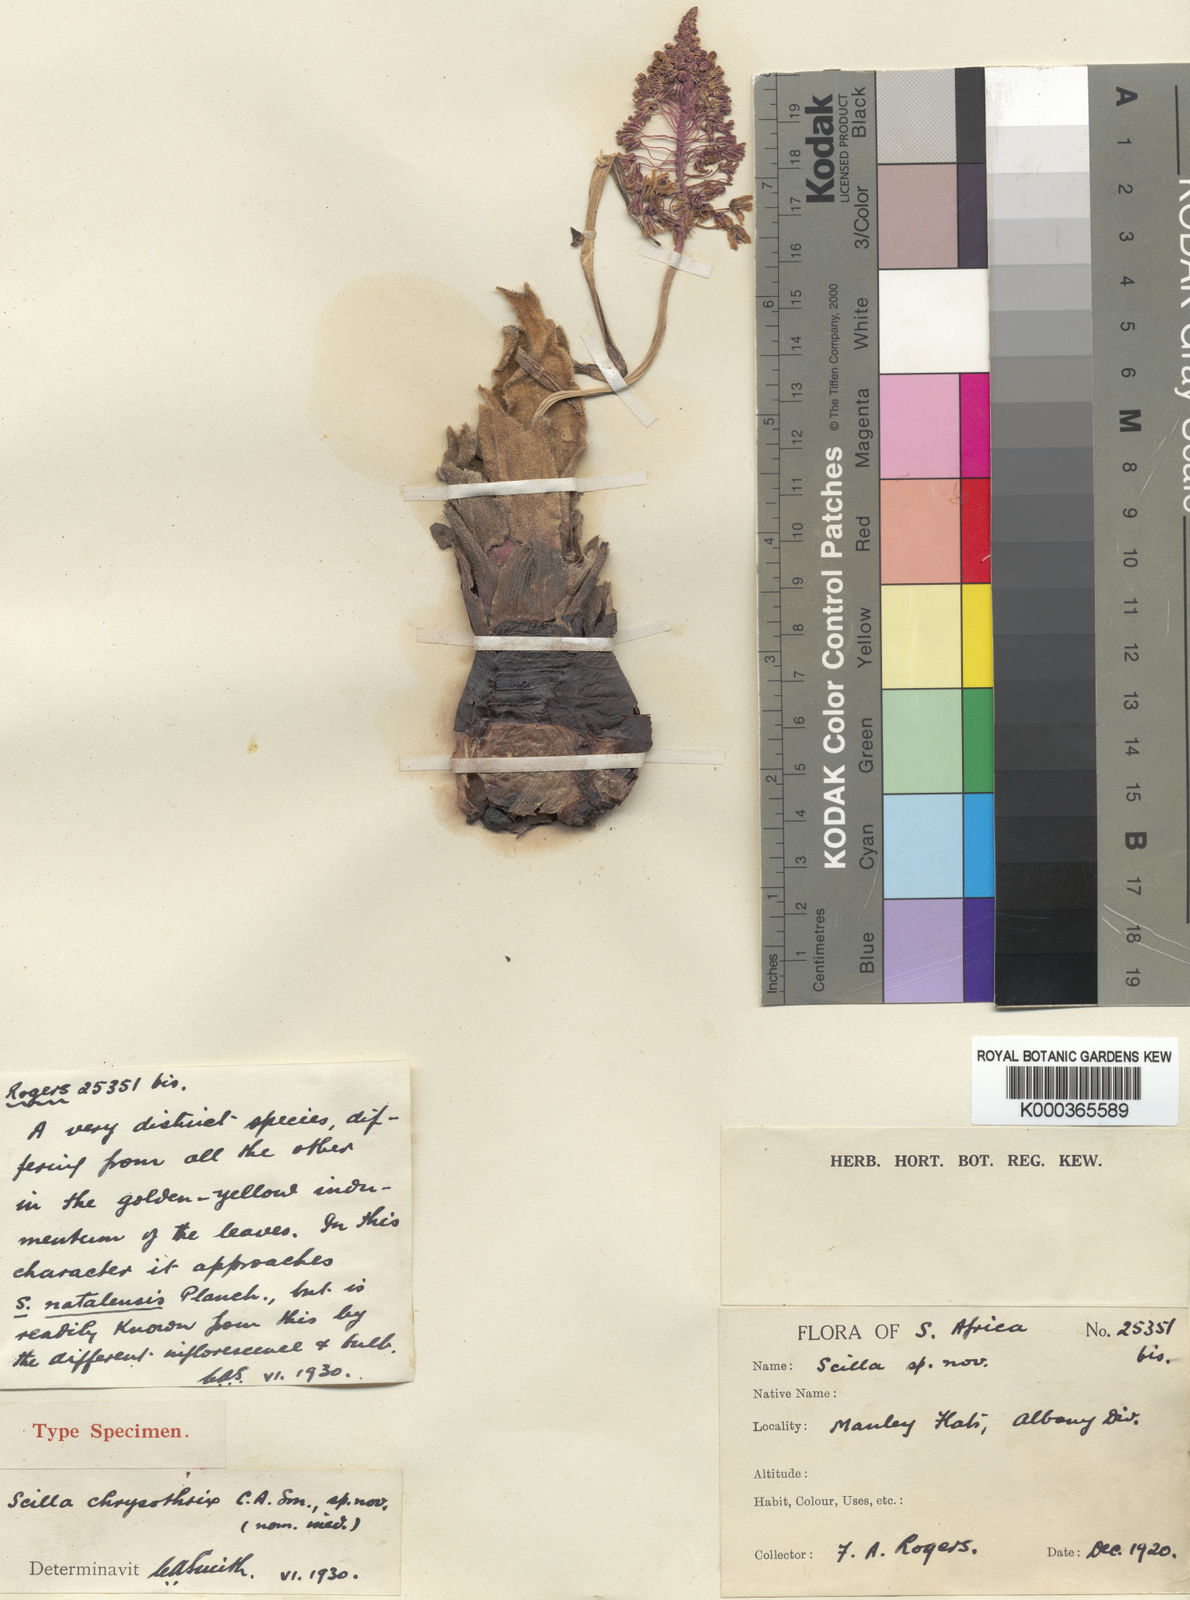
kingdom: Plantae
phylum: Tracheophyta
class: Liliopsida
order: Asparagales
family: Asparagaceae
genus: Scilla
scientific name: Scilla
